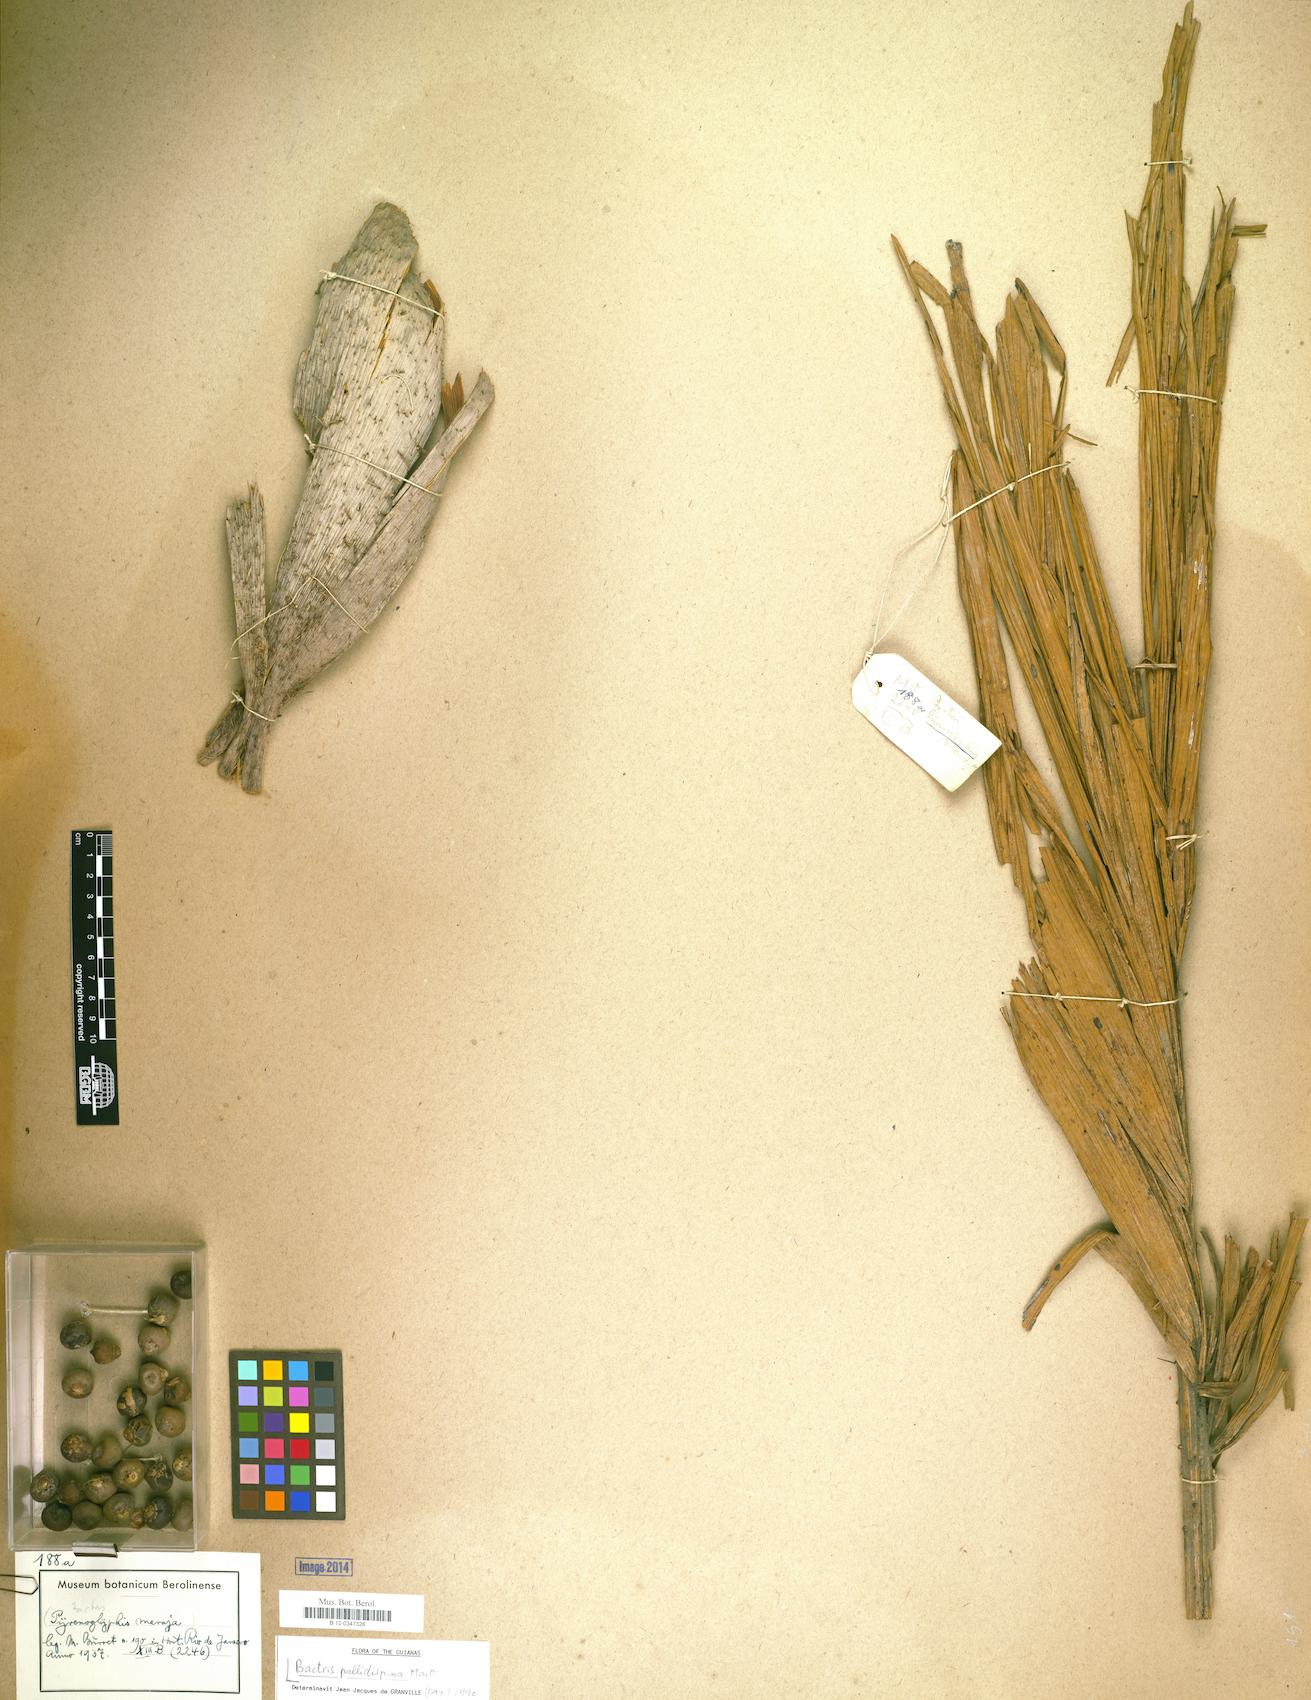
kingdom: Plantae
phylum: Tracheophyta
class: Liliopsida
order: Arecales
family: Arecaceae
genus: Bactris
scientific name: Bactris brongniartii
